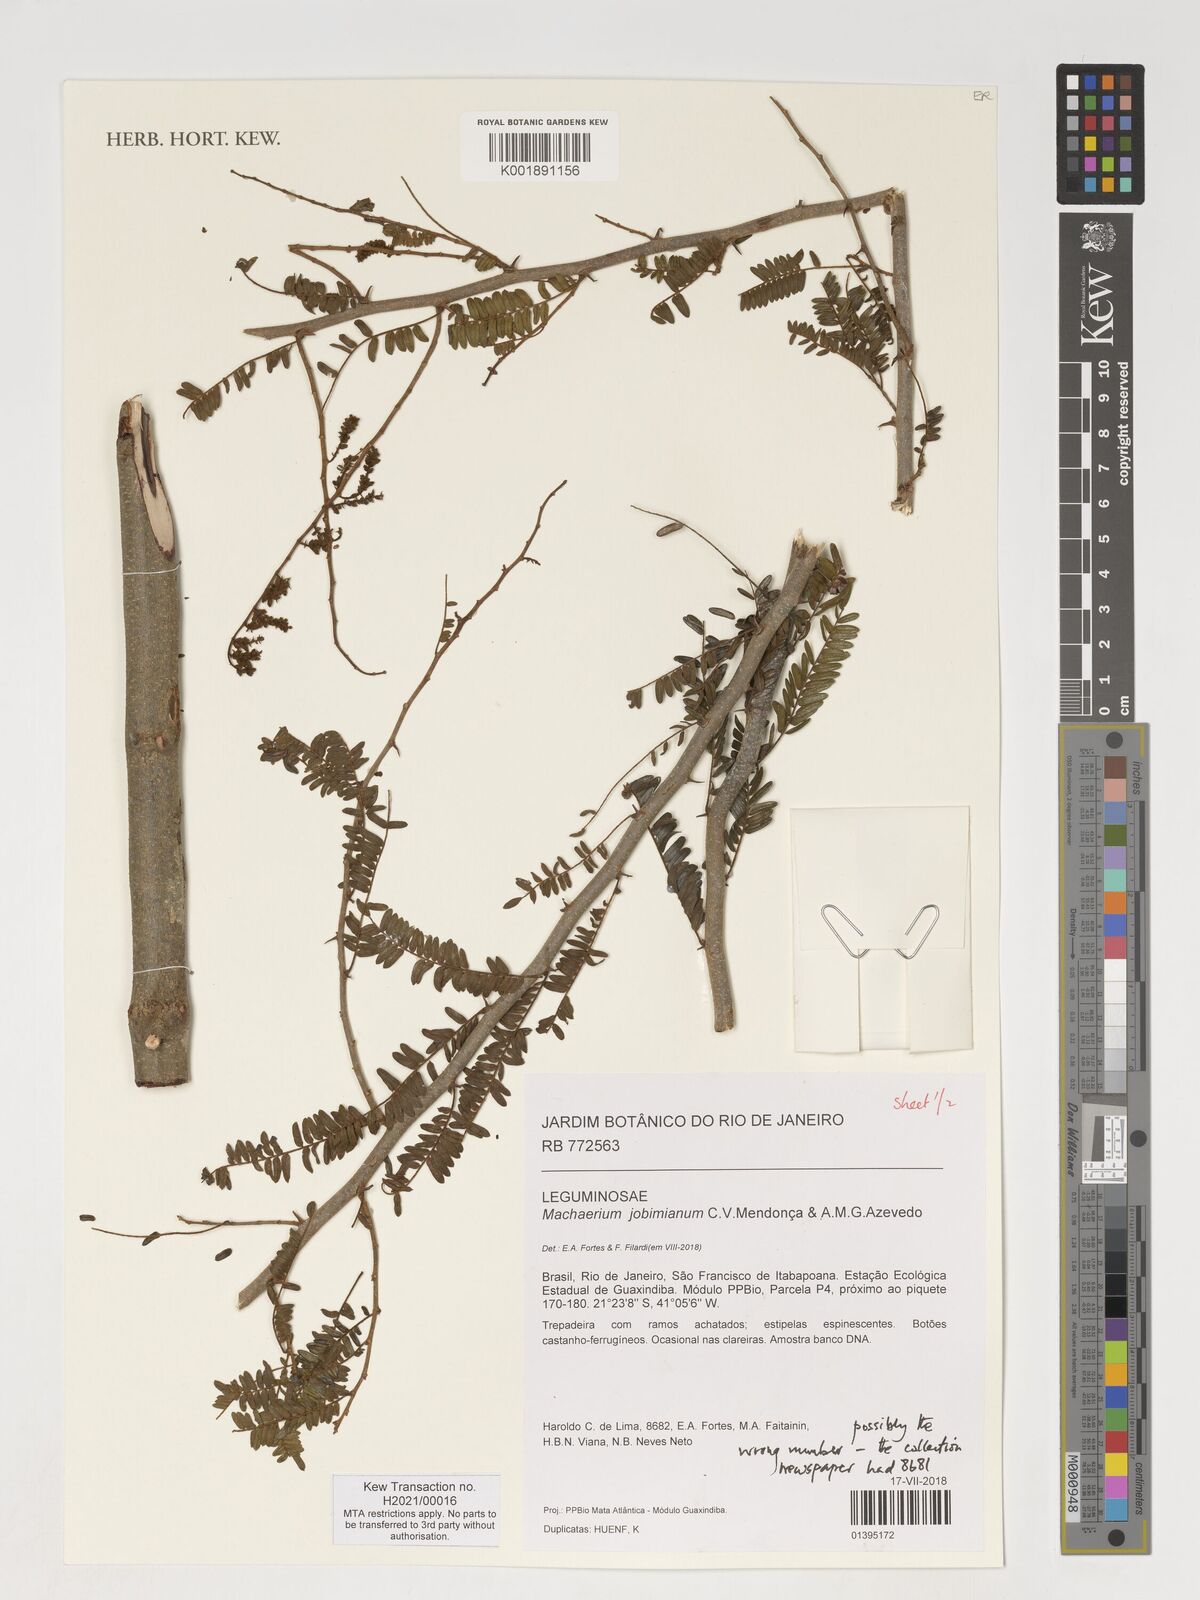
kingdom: Plantae
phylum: Tracheophyta
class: Magnoliopsida
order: Fabales
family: Fabaceae
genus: Machaerium
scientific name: Machaerium jobimianum
